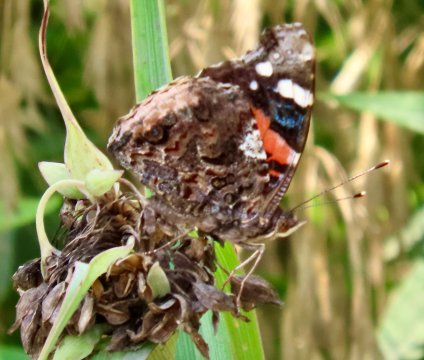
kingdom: Animalia
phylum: Arthropoda
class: Insecta
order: Lepidoptera
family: Nymphalidae
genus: Vanessa
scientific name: Vanessa atalanta
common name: Red Admiral
